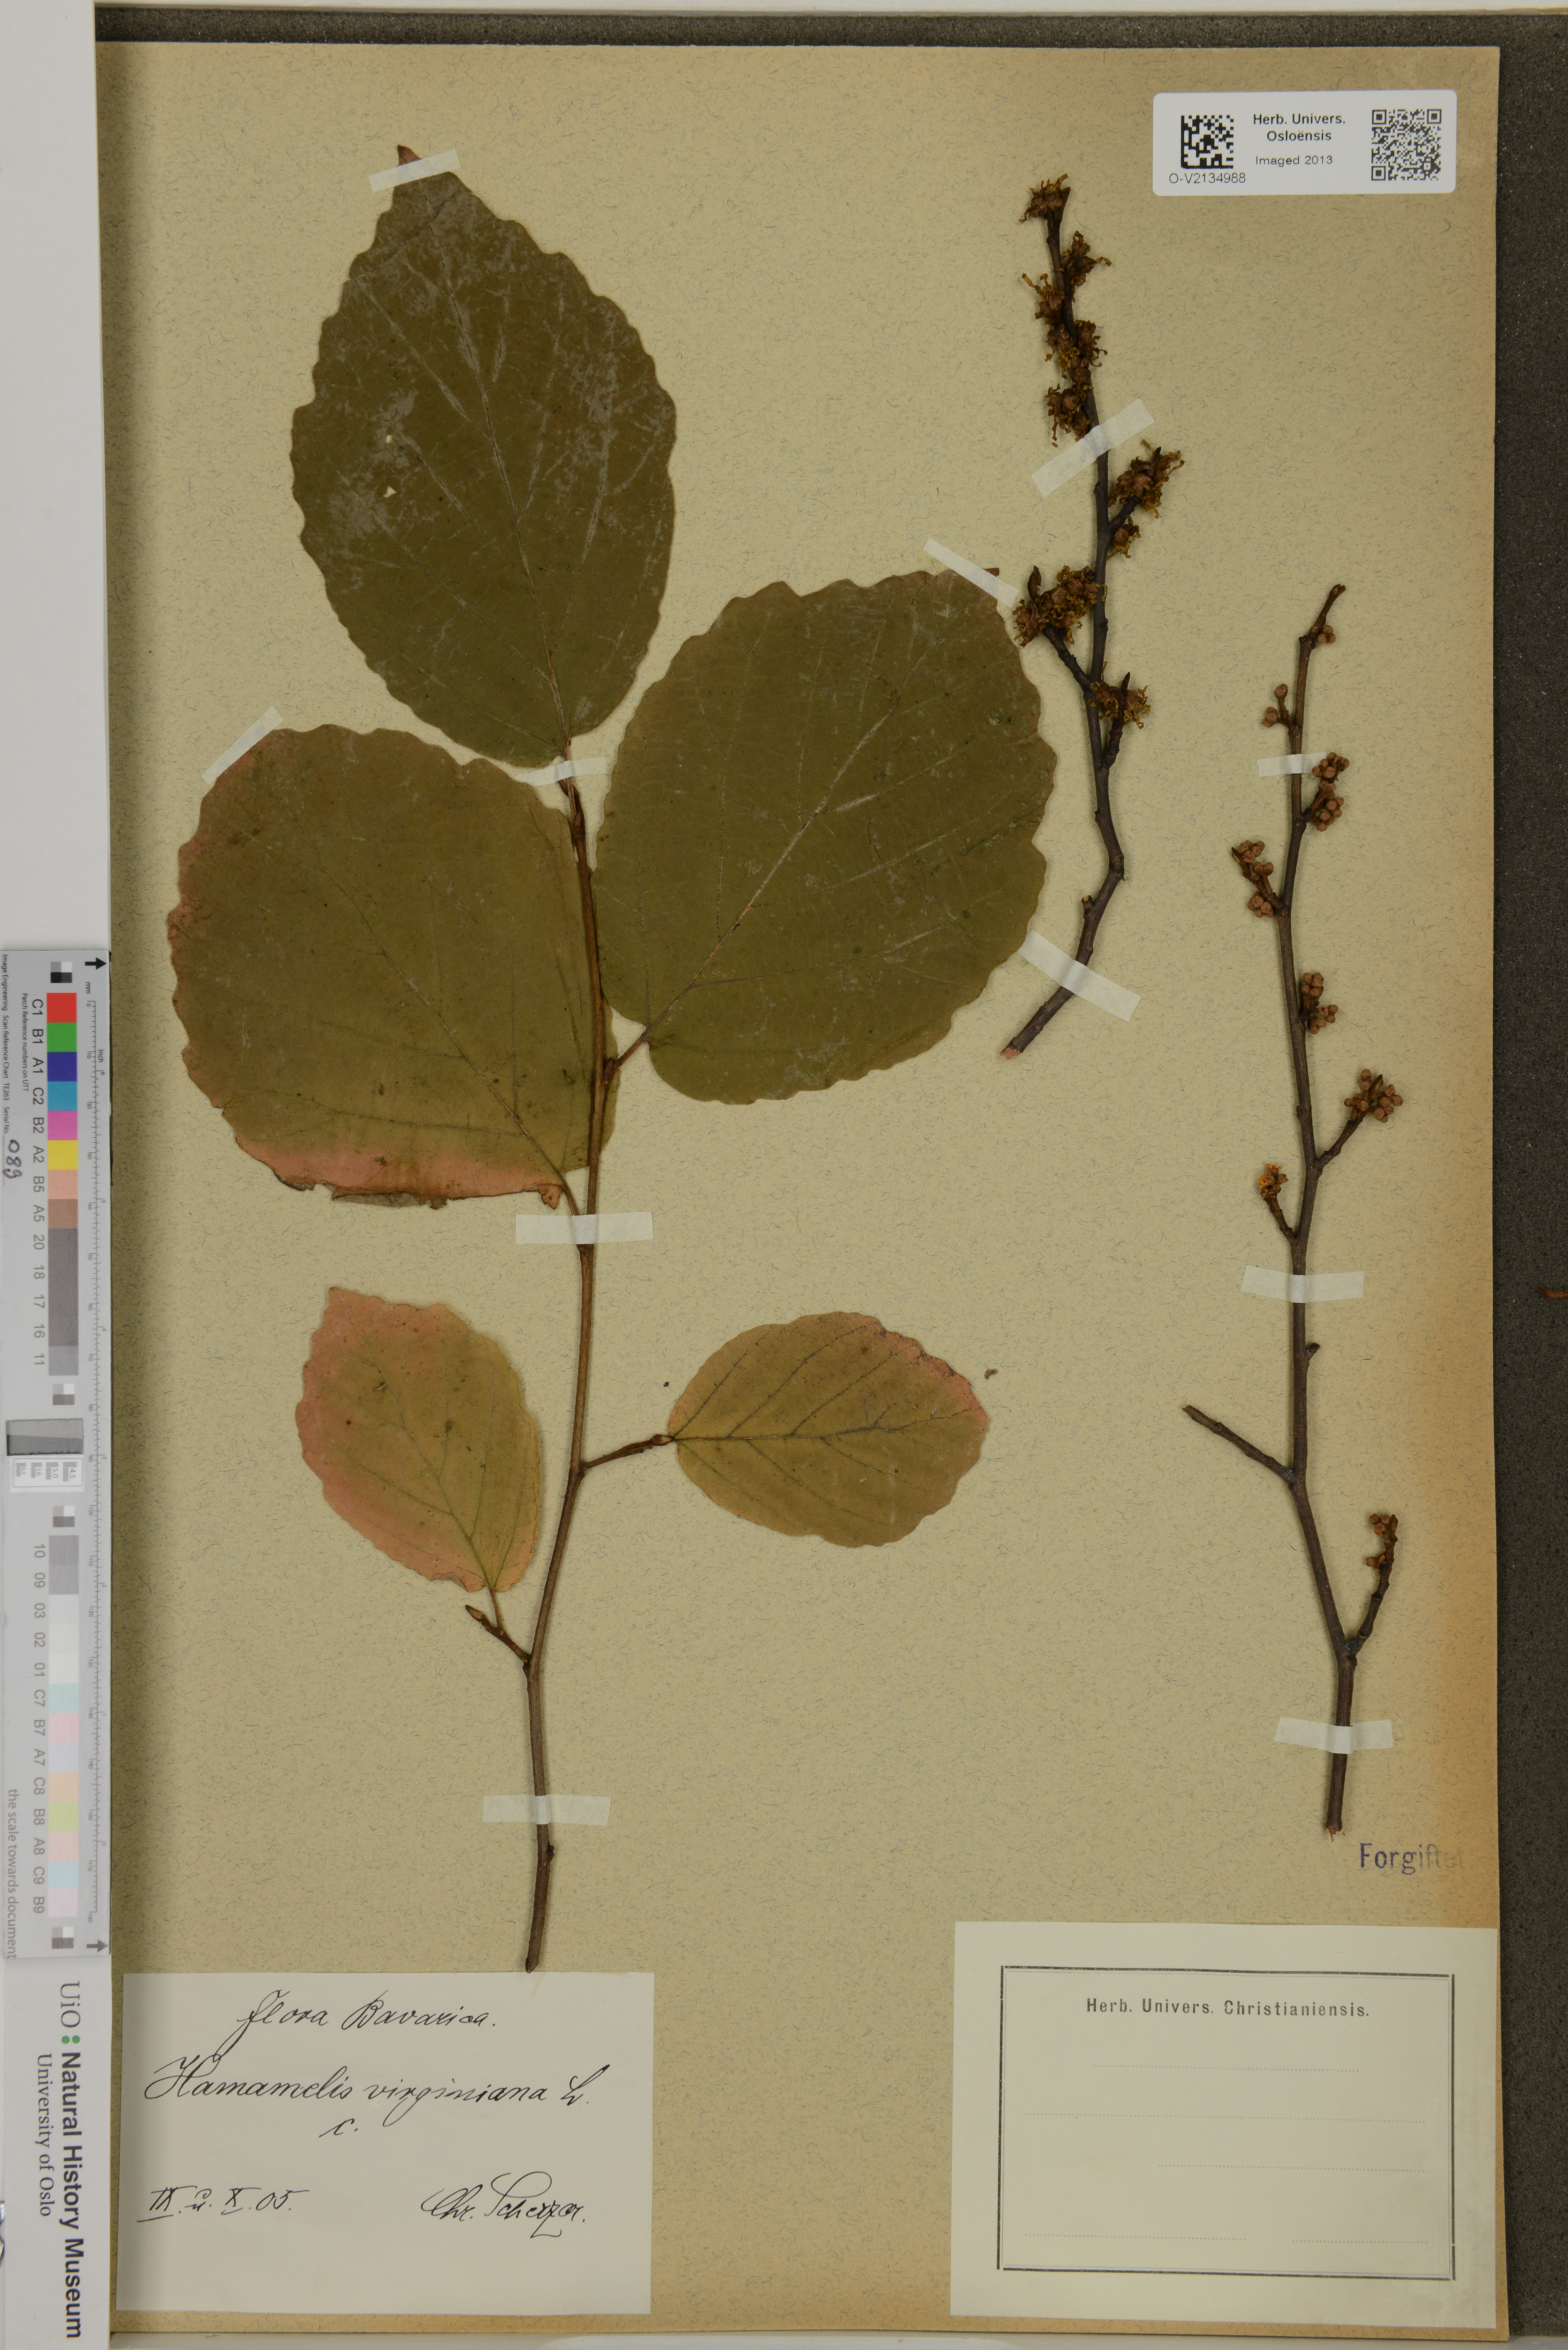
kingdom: Plantae
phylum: Tracheophyta
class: Magnoliopsida
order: Saxifragales
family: Hamamelidaceae
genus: Hamamelis
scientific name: Hamamelis virginiana
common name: Witch-hazel
